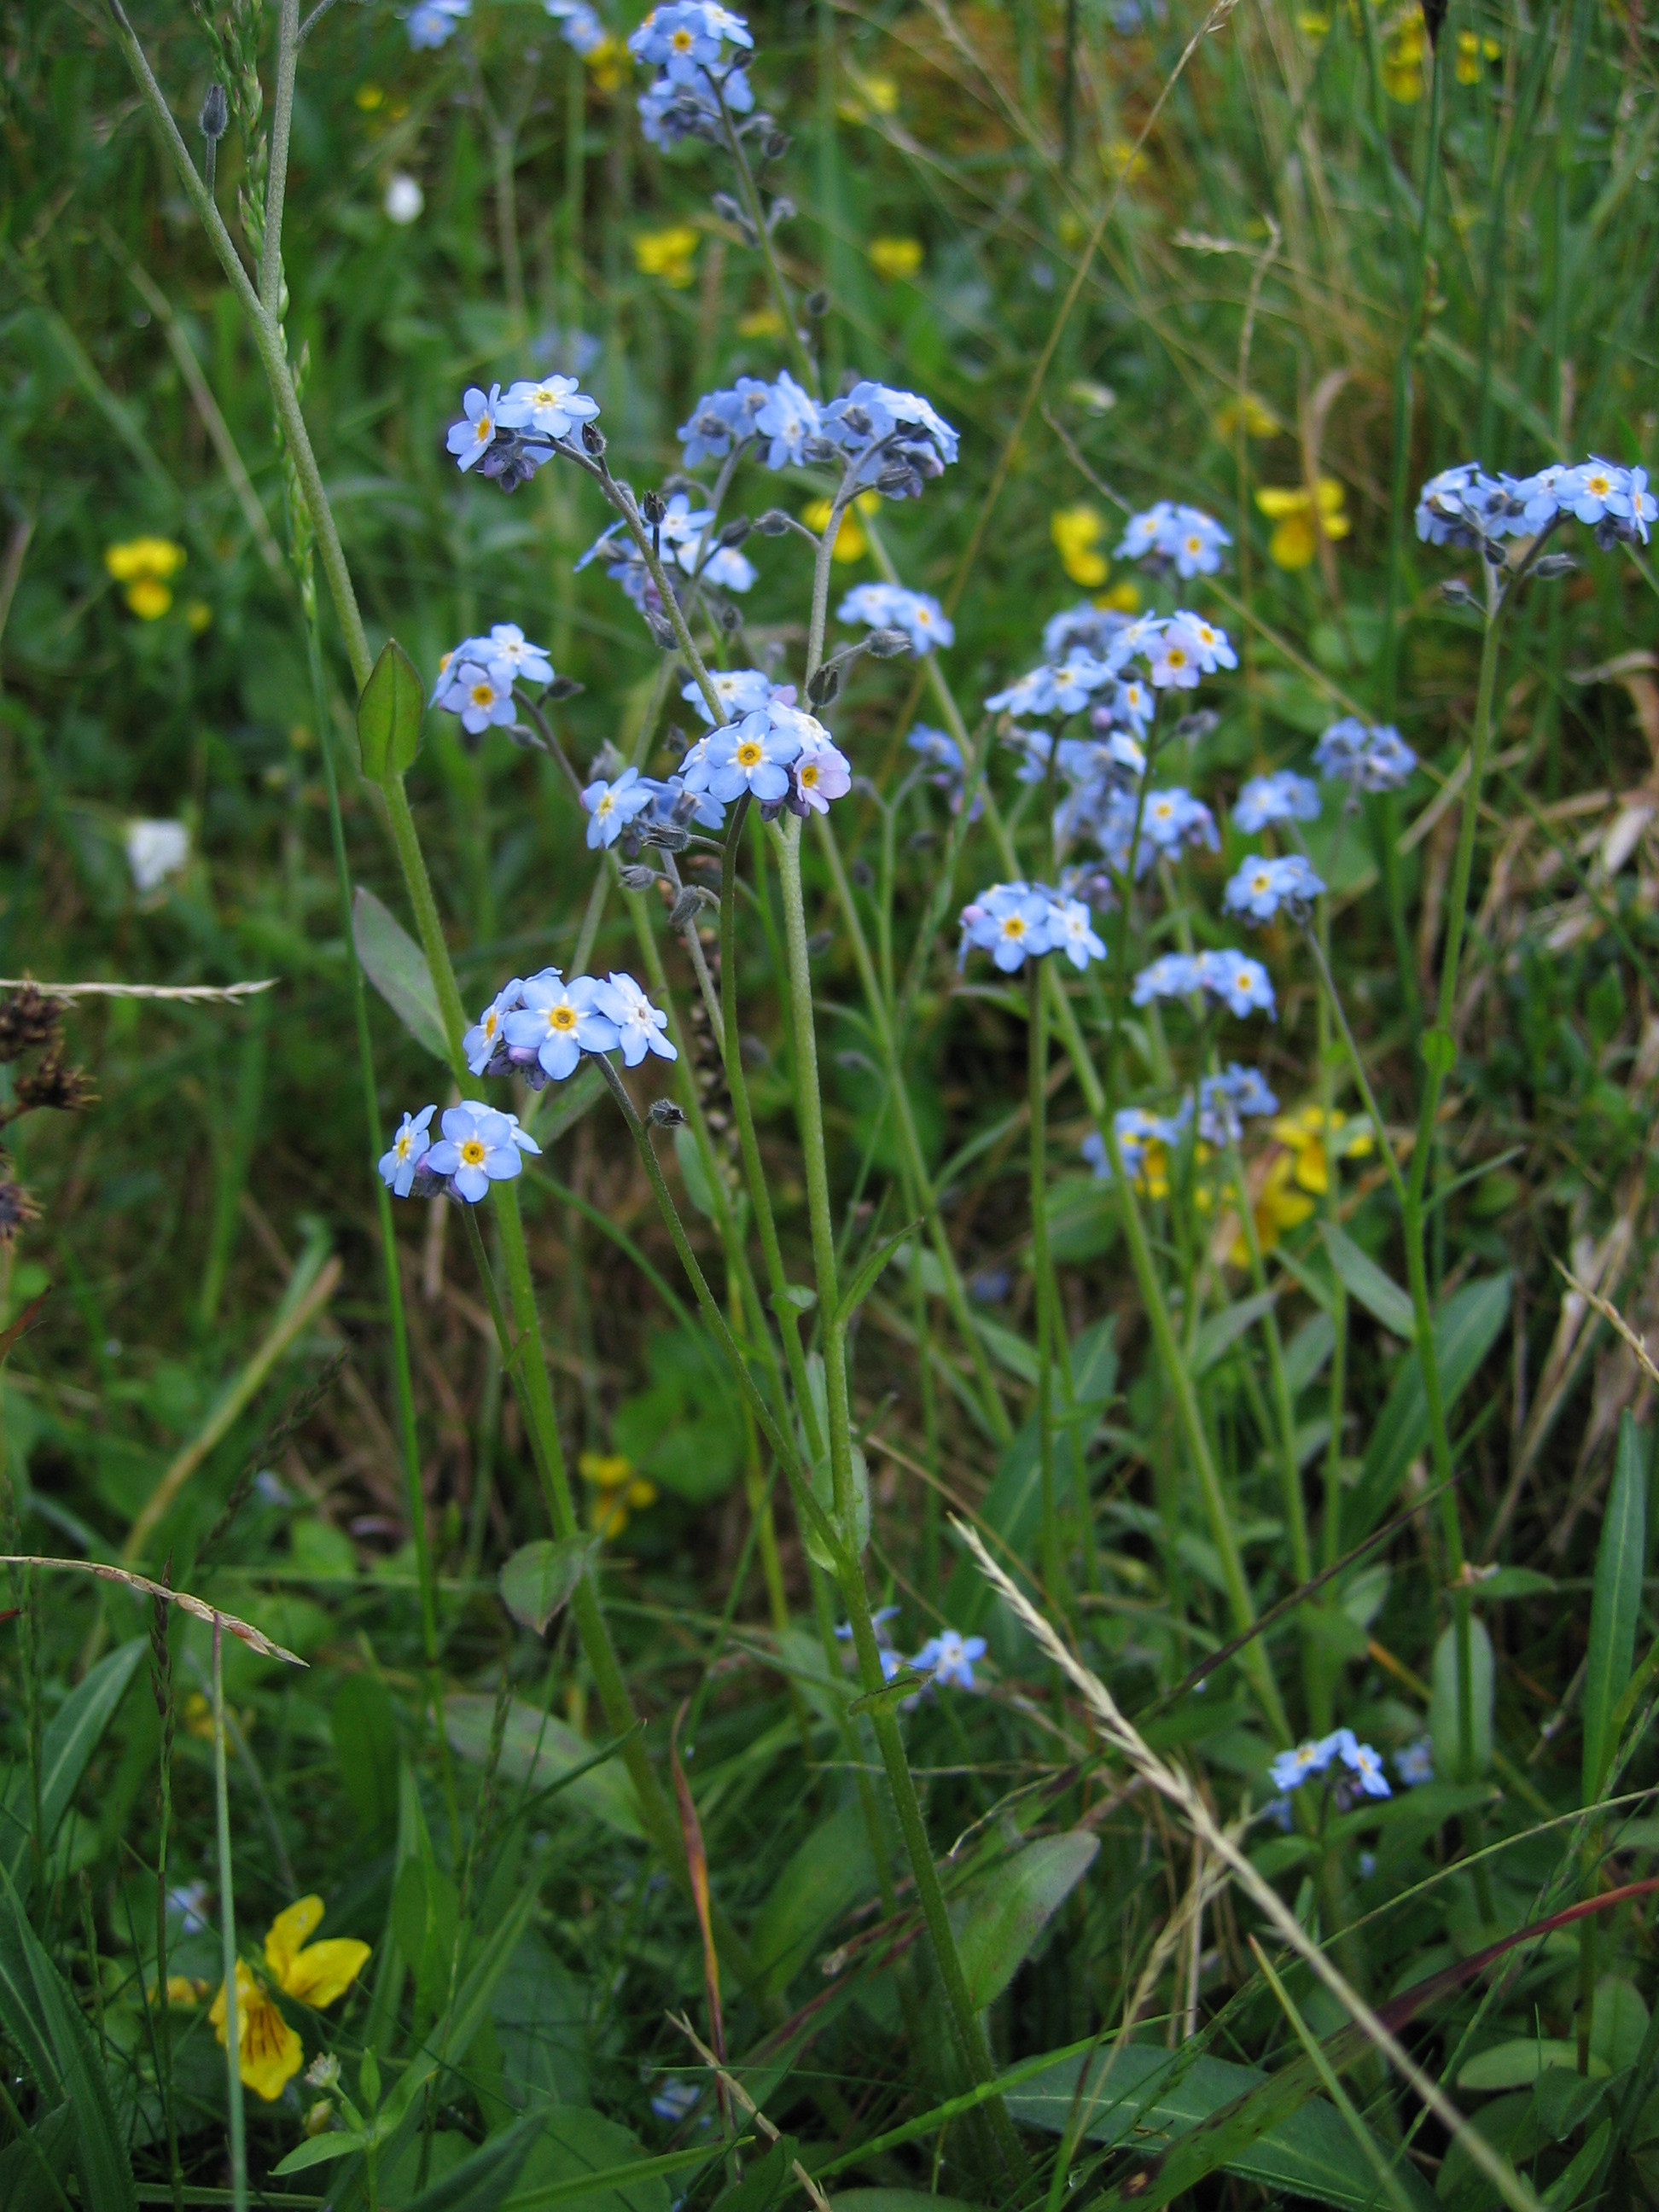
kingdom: Plantae
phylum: Tracheophyta
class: Magnoliopsida
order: Boraginales
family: Boraginaceae
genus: Myosotis
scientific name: Myosotis decumbens
